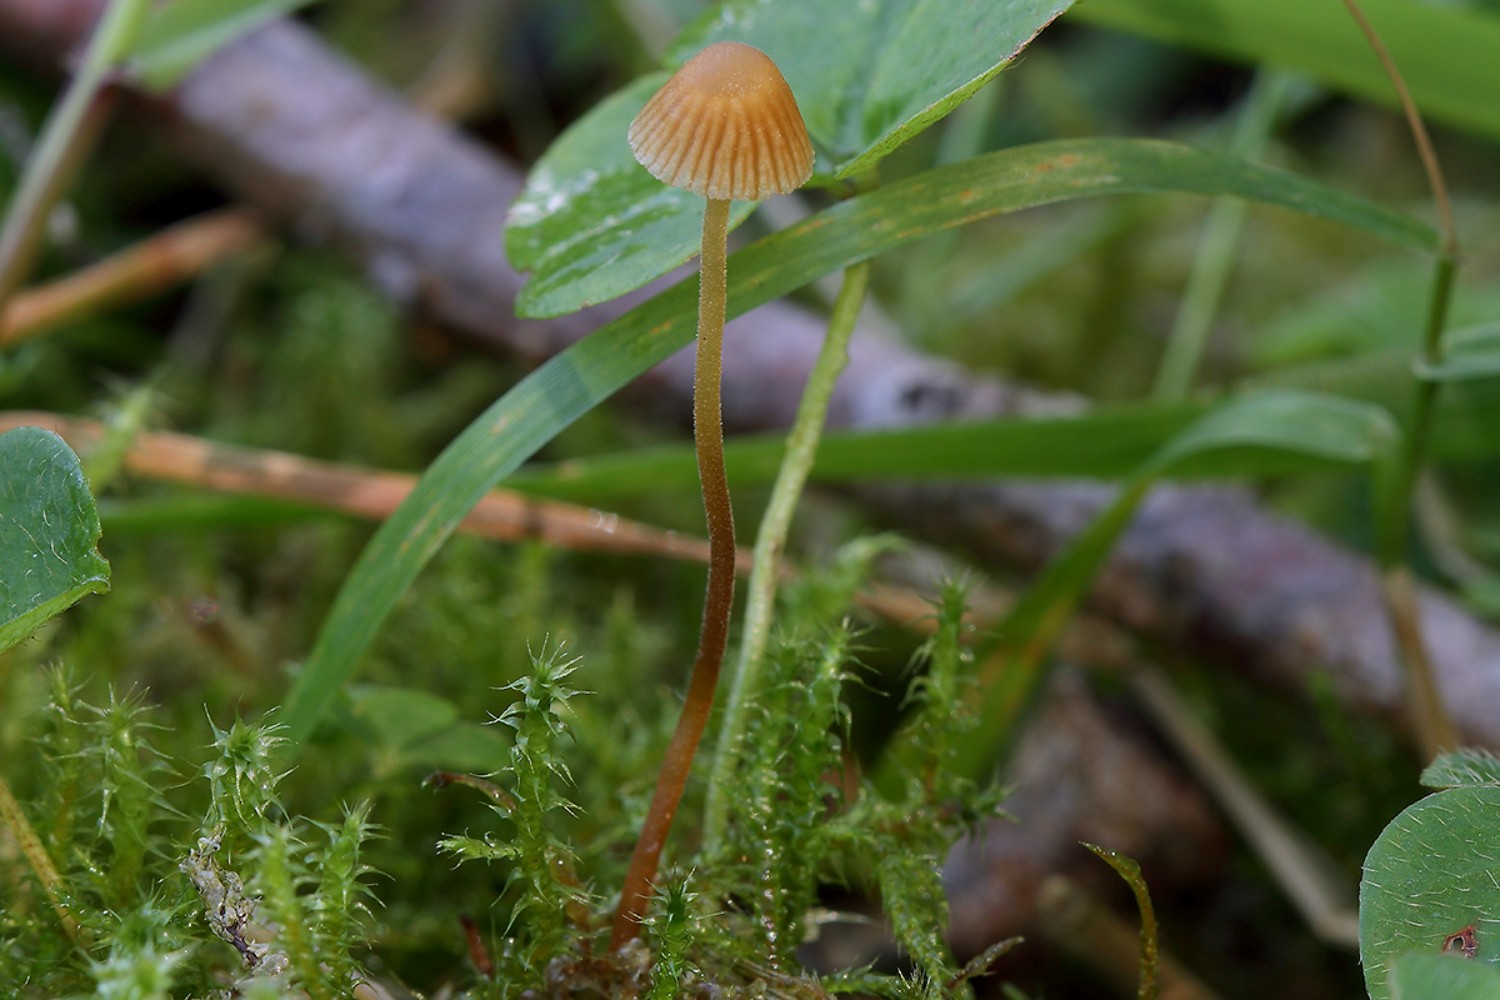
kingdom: Fungi
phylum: Basidiomycota
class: Agaricomycetes
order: Agaricales
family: Hymenogastraceae
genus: Galerina
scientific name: Galerina atkinsoniana
